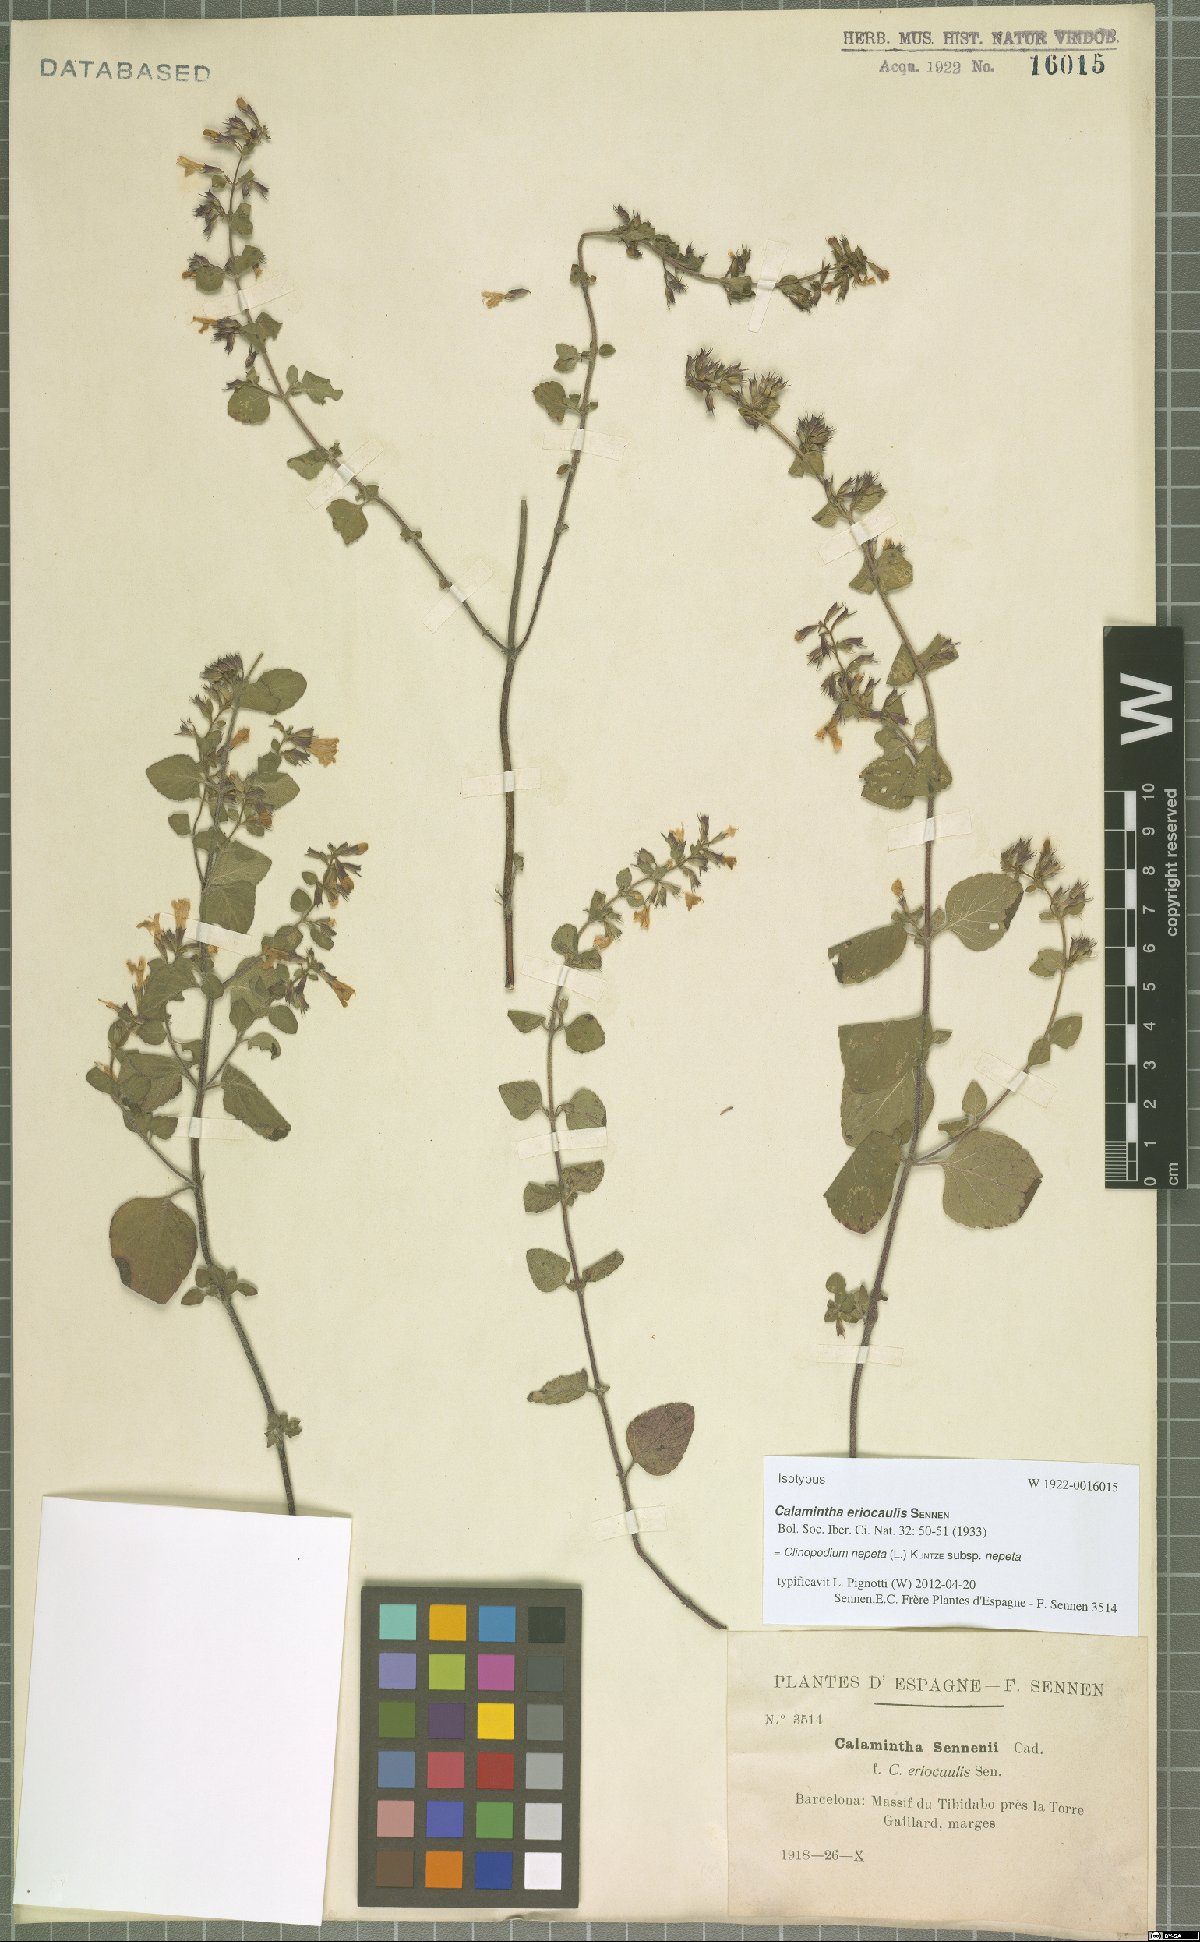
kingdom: Plantae
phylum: Tracheophyta
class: Magnoliopsida
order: Lamiales
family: Lamiaceae
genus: Clinopodium
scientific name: Clinopodium nepeta
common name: Lesser calamint
